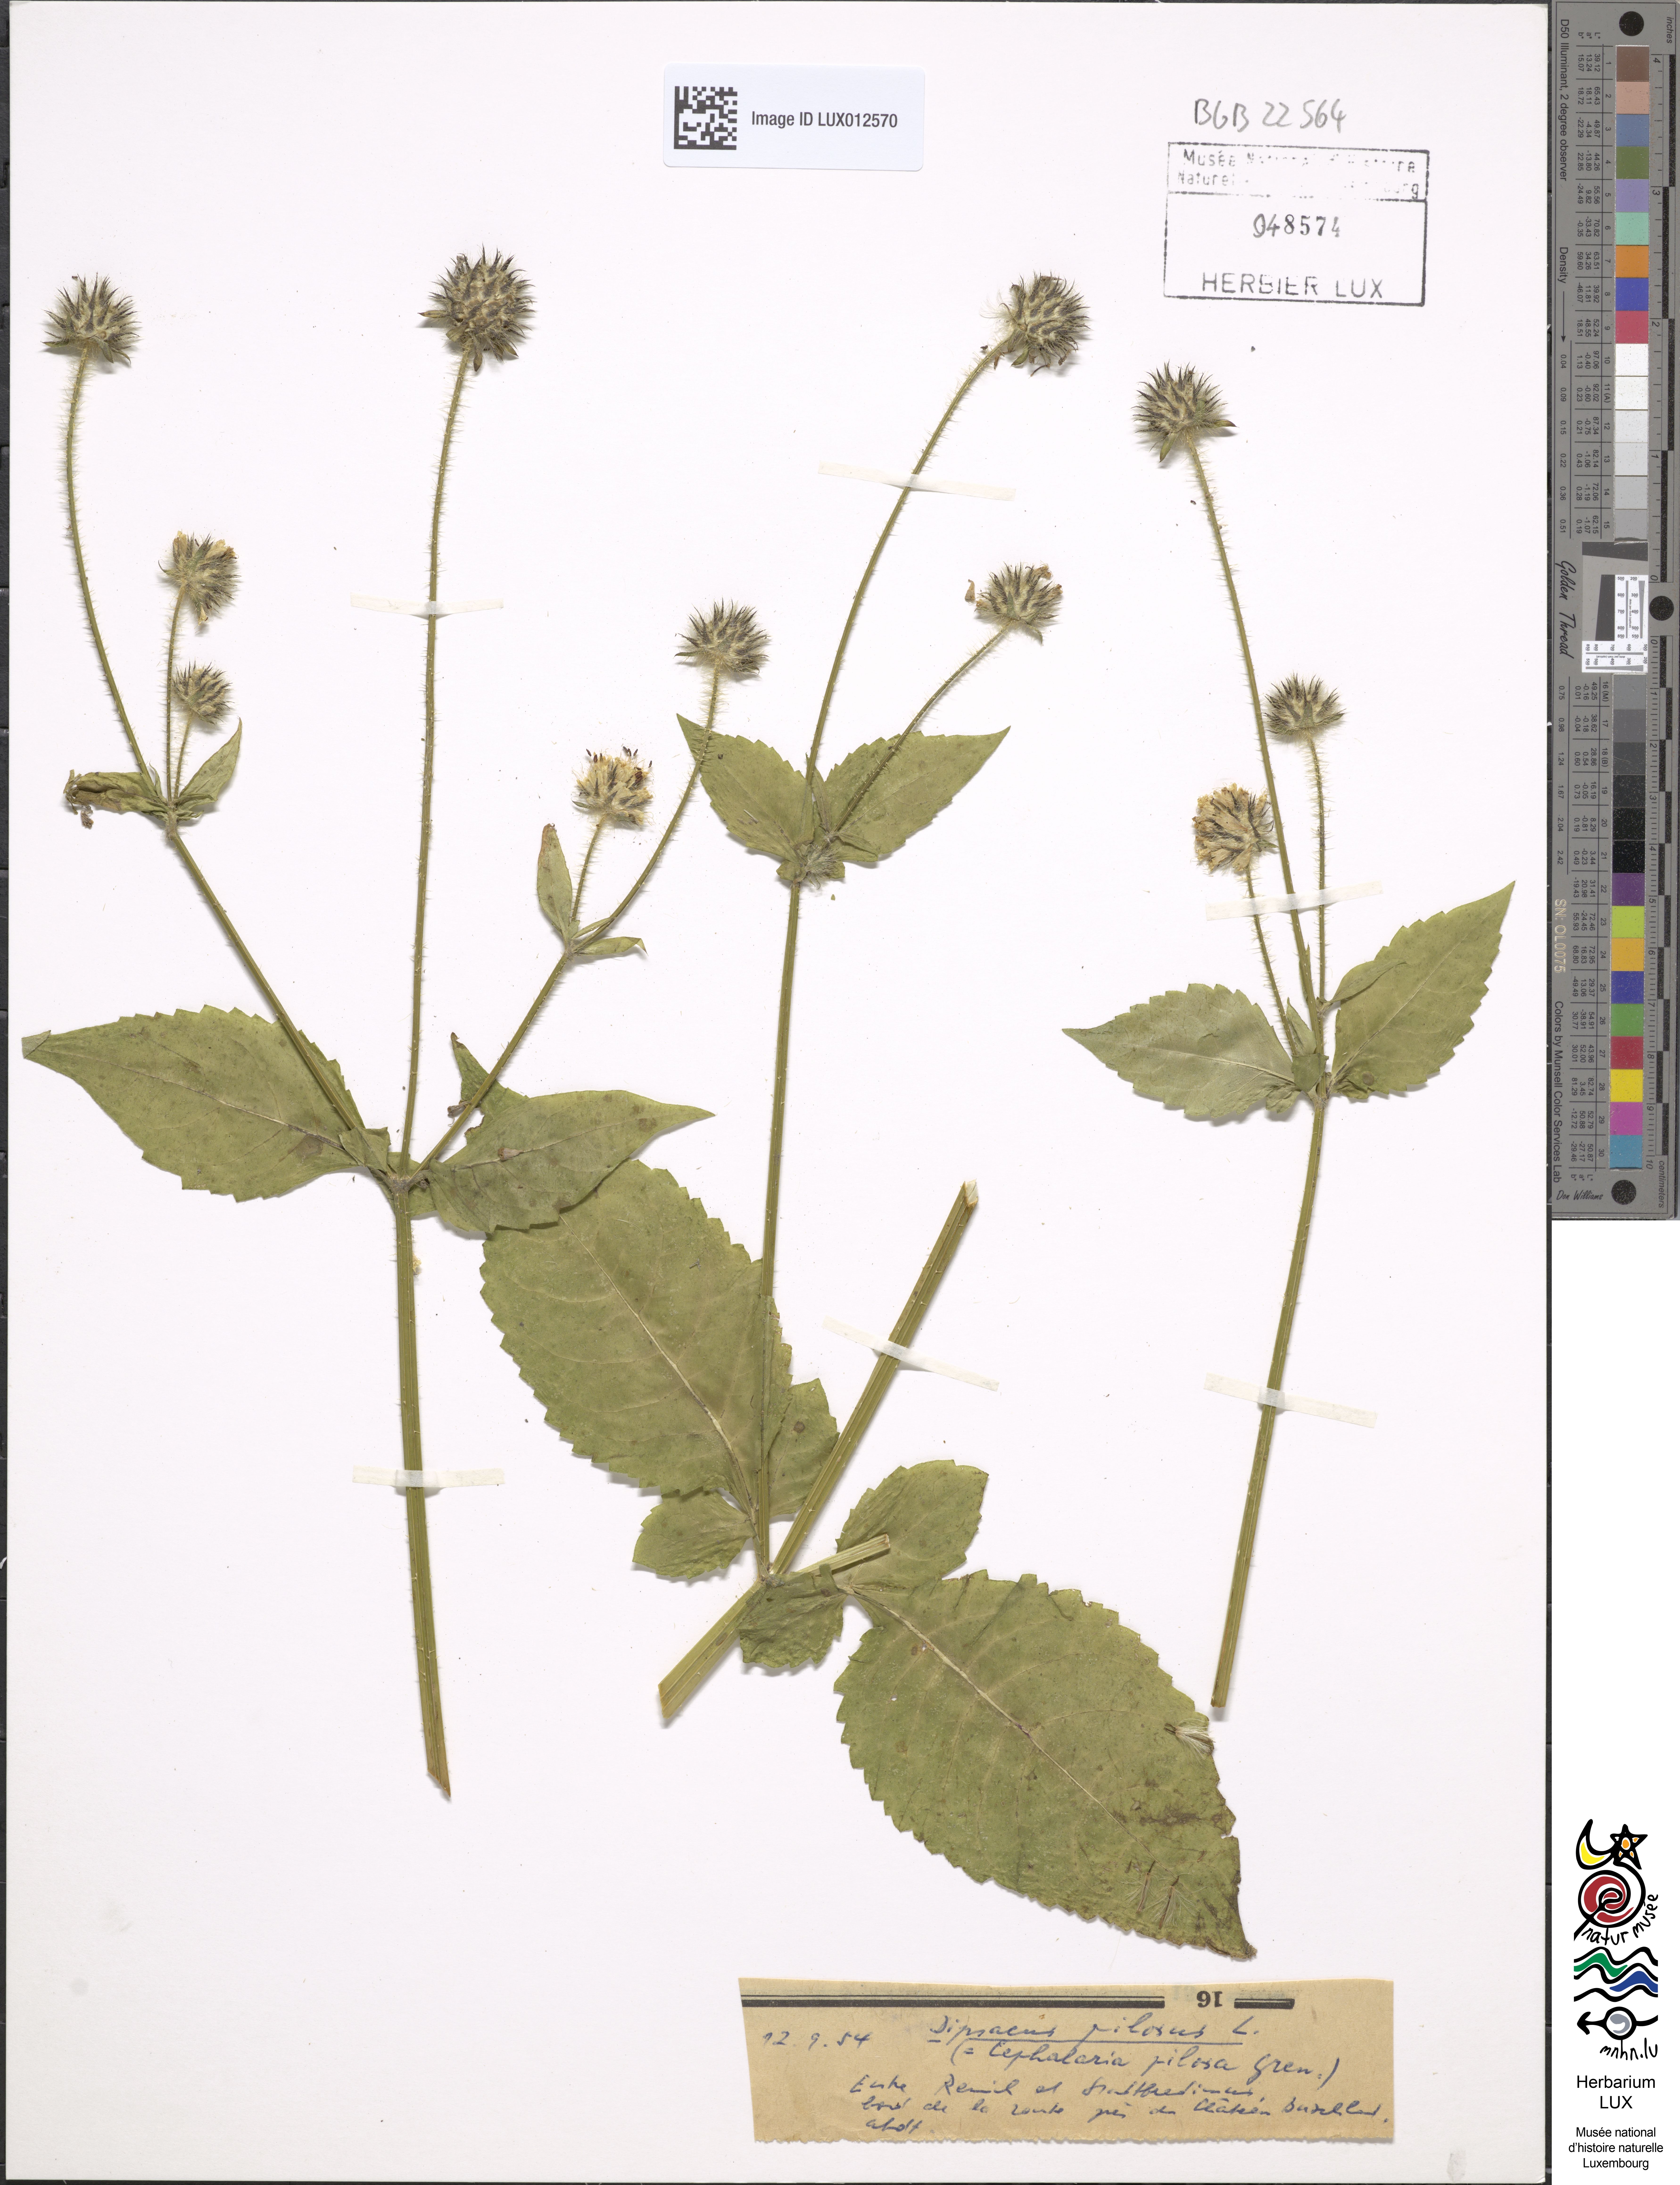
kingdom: Plantae
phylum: Tracheophyta
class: Magnoliopsida
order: Dipsacales
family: Caprifoliaceae
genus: Dipsacus
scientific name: Dipsacus pilosus
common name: Small teasel
